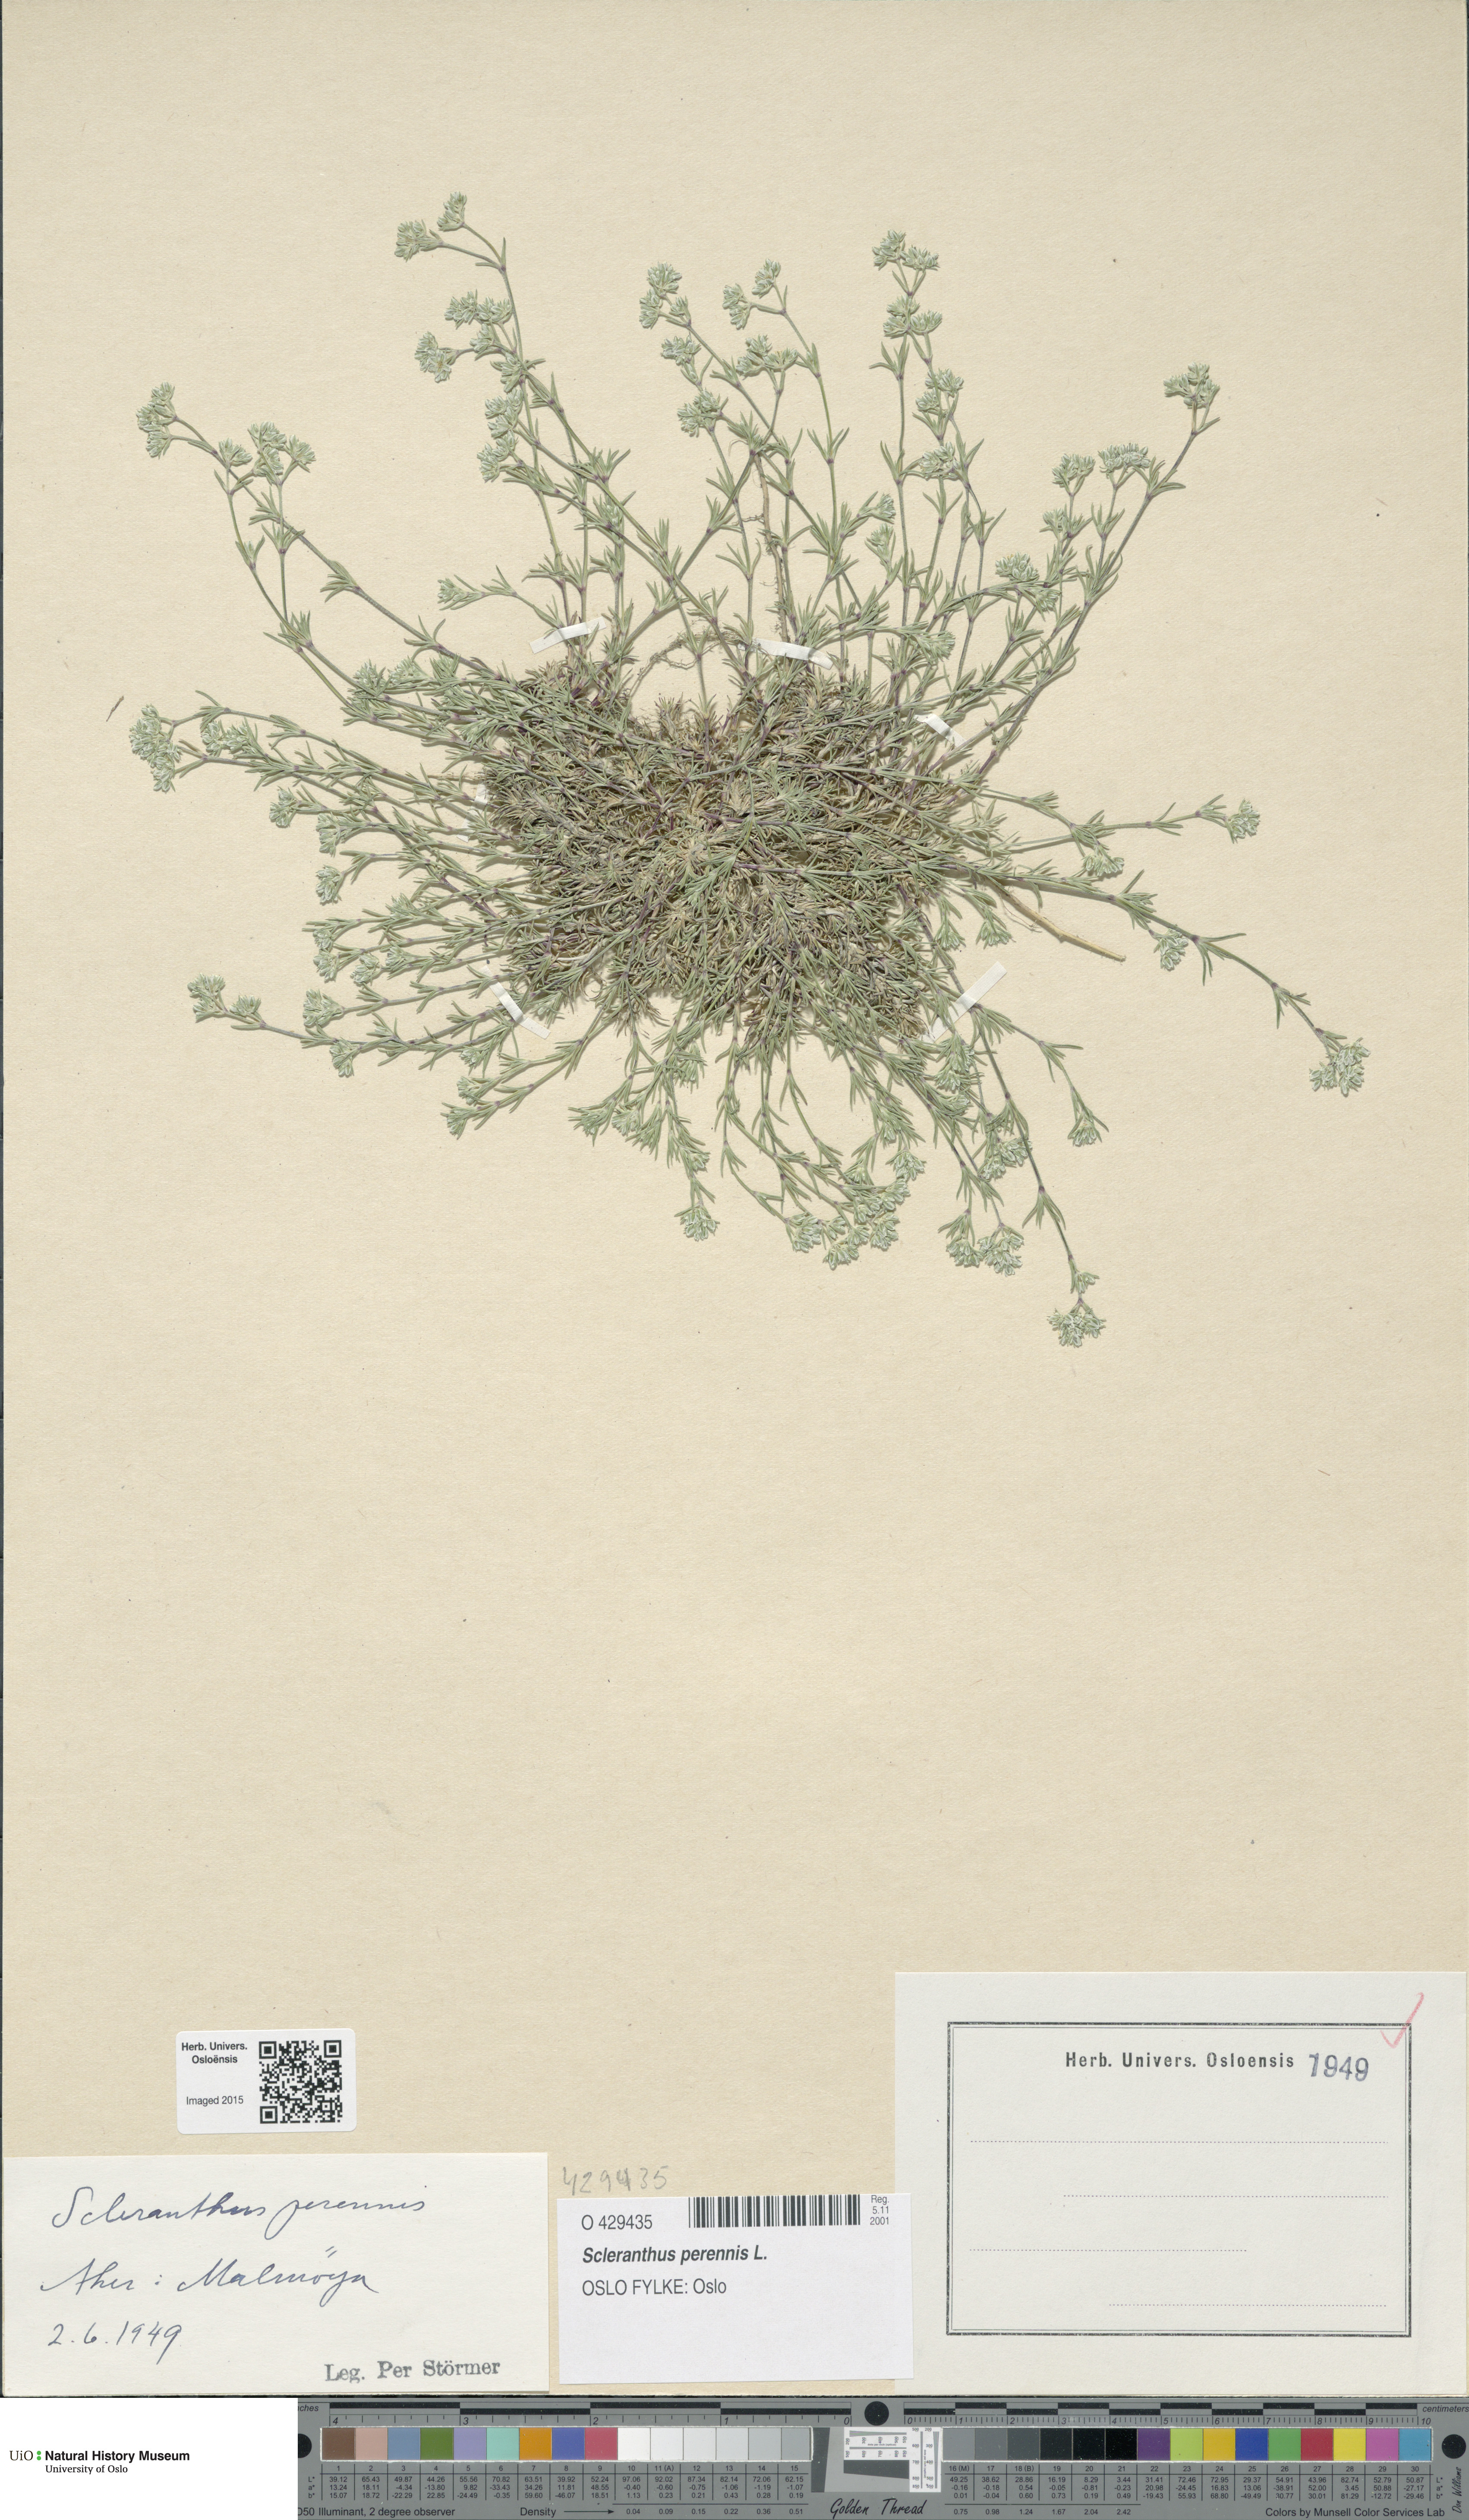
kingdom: Plantae
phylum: Tracheophyta
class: Magnoliopsida
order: Caryophyllales
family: Caryophyllaceae
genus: Scleranthus
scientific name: Scleranthus perennis
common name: Perennial knawel
